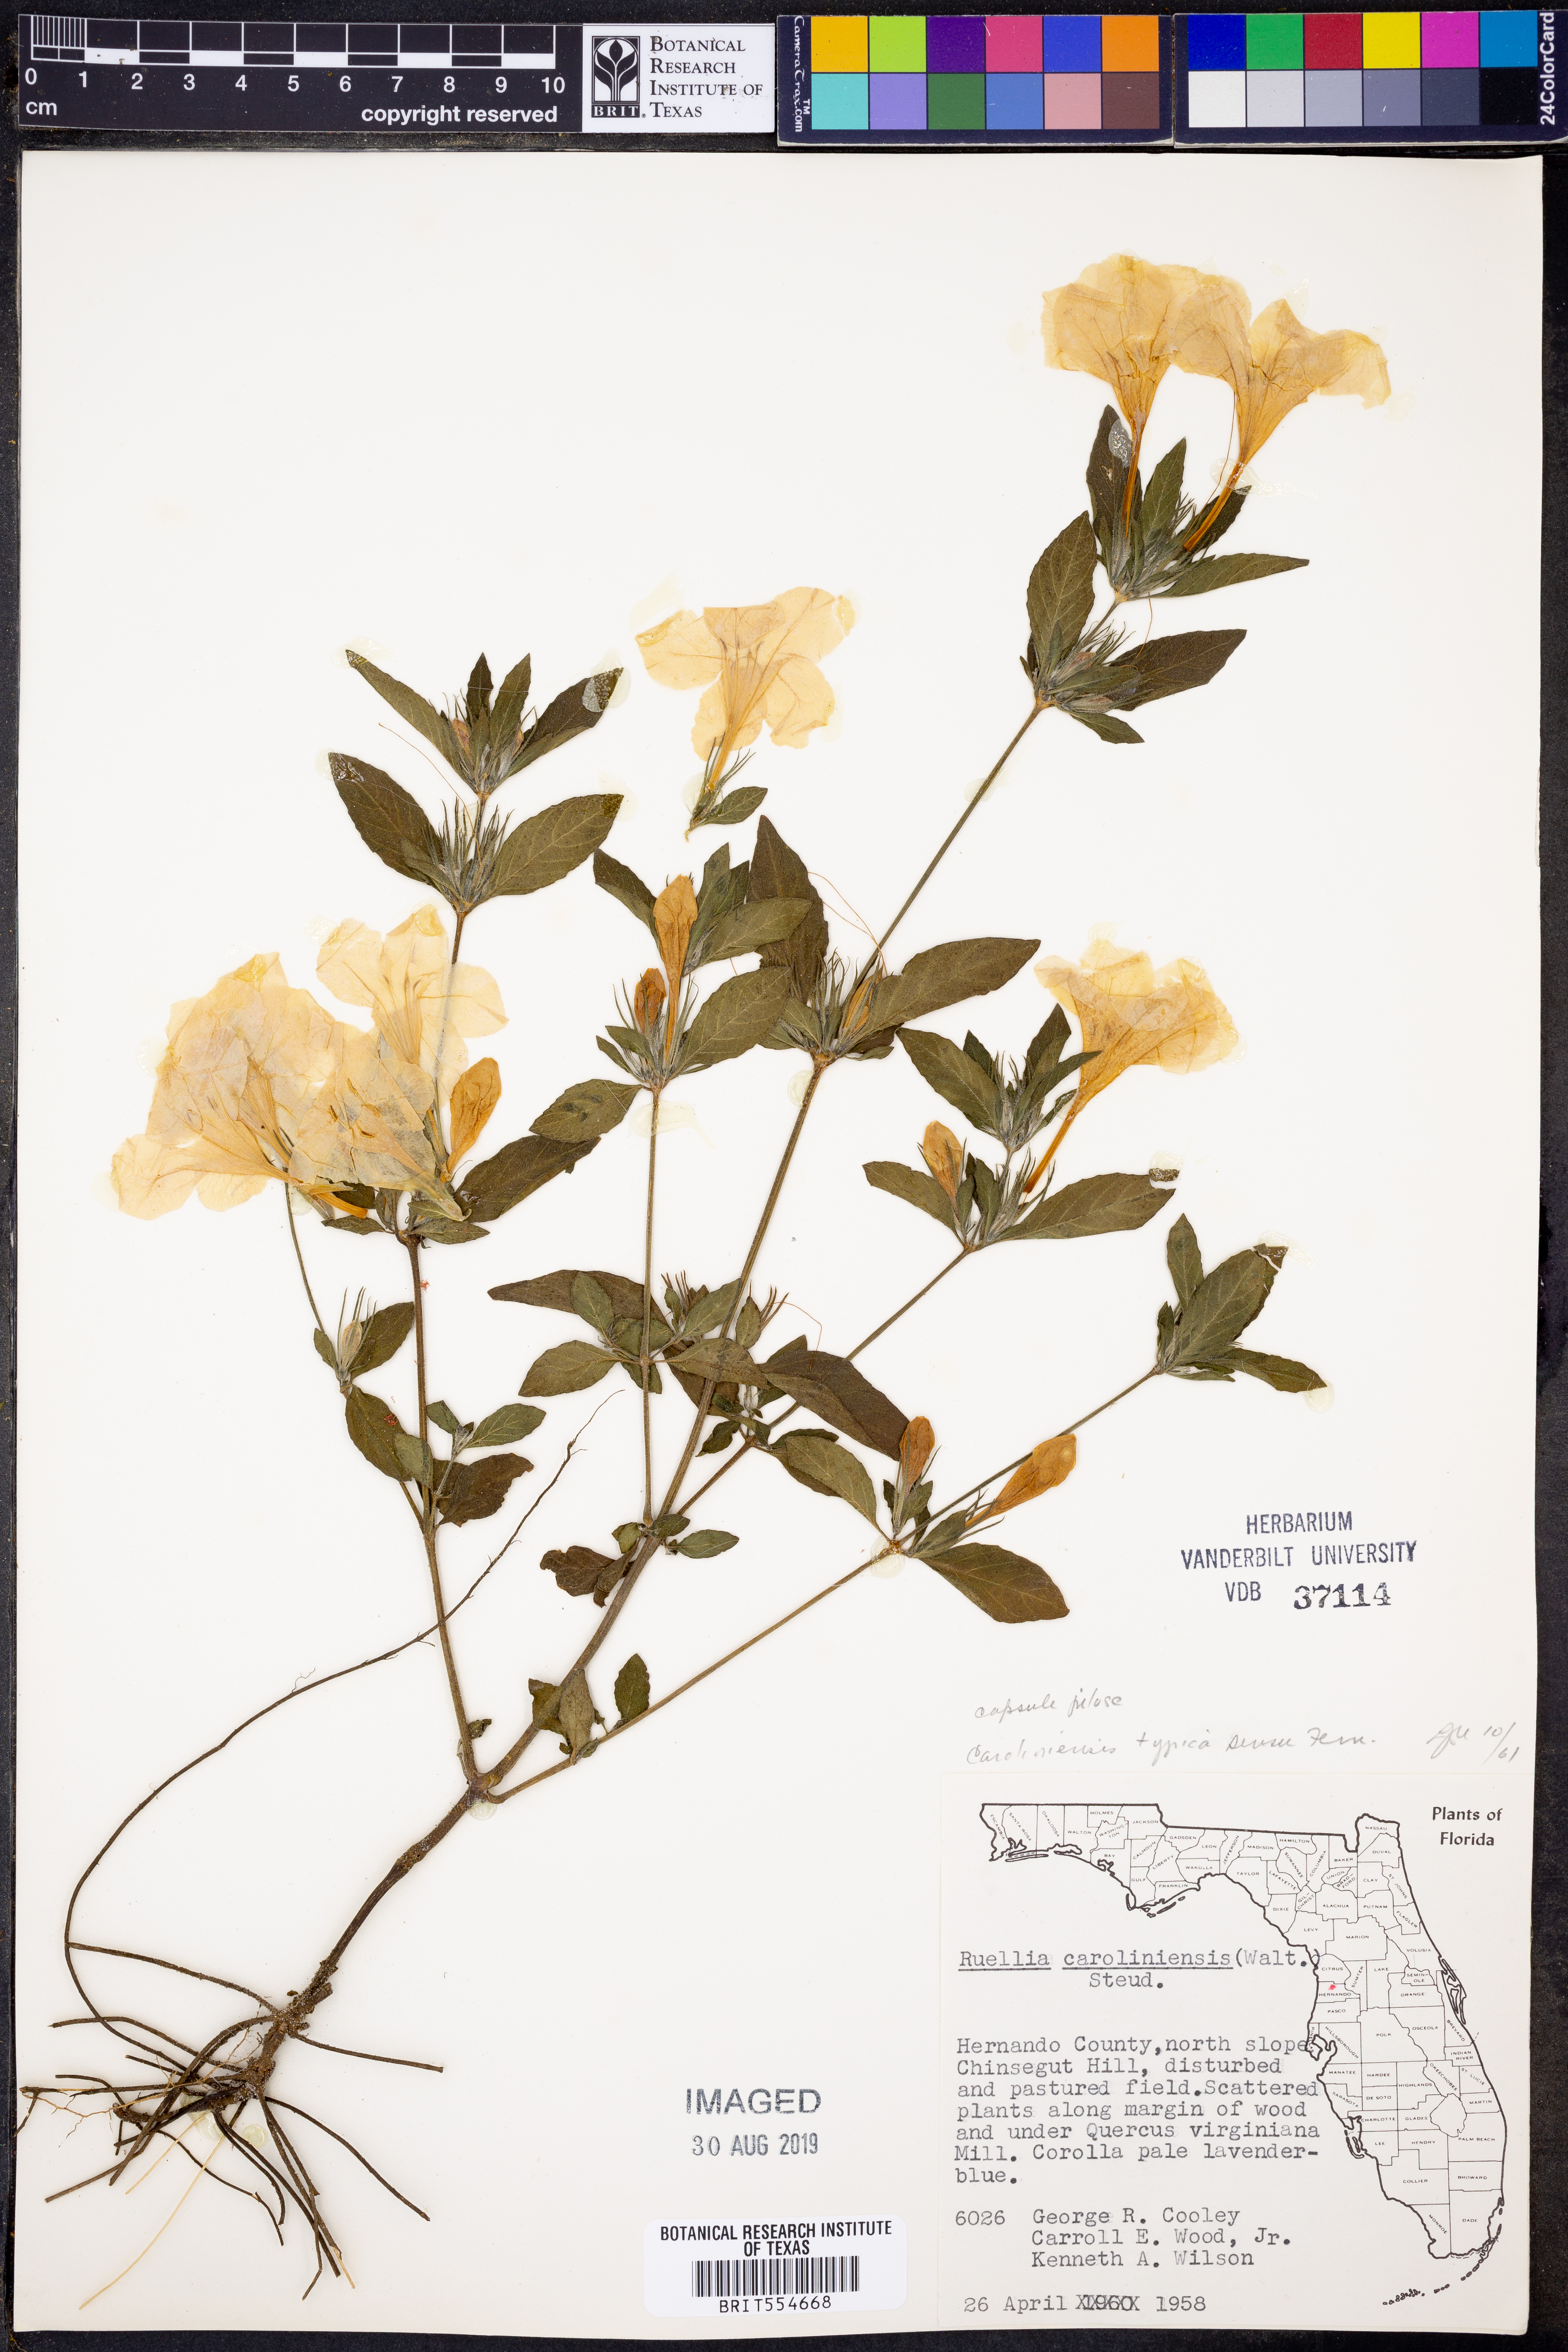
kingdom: Plantae
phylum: Tracheophyta
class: Magnoliopsida
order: Lamiales
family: Acanthaceae
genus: Ruellia
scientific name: Ruellia caroliniensis
